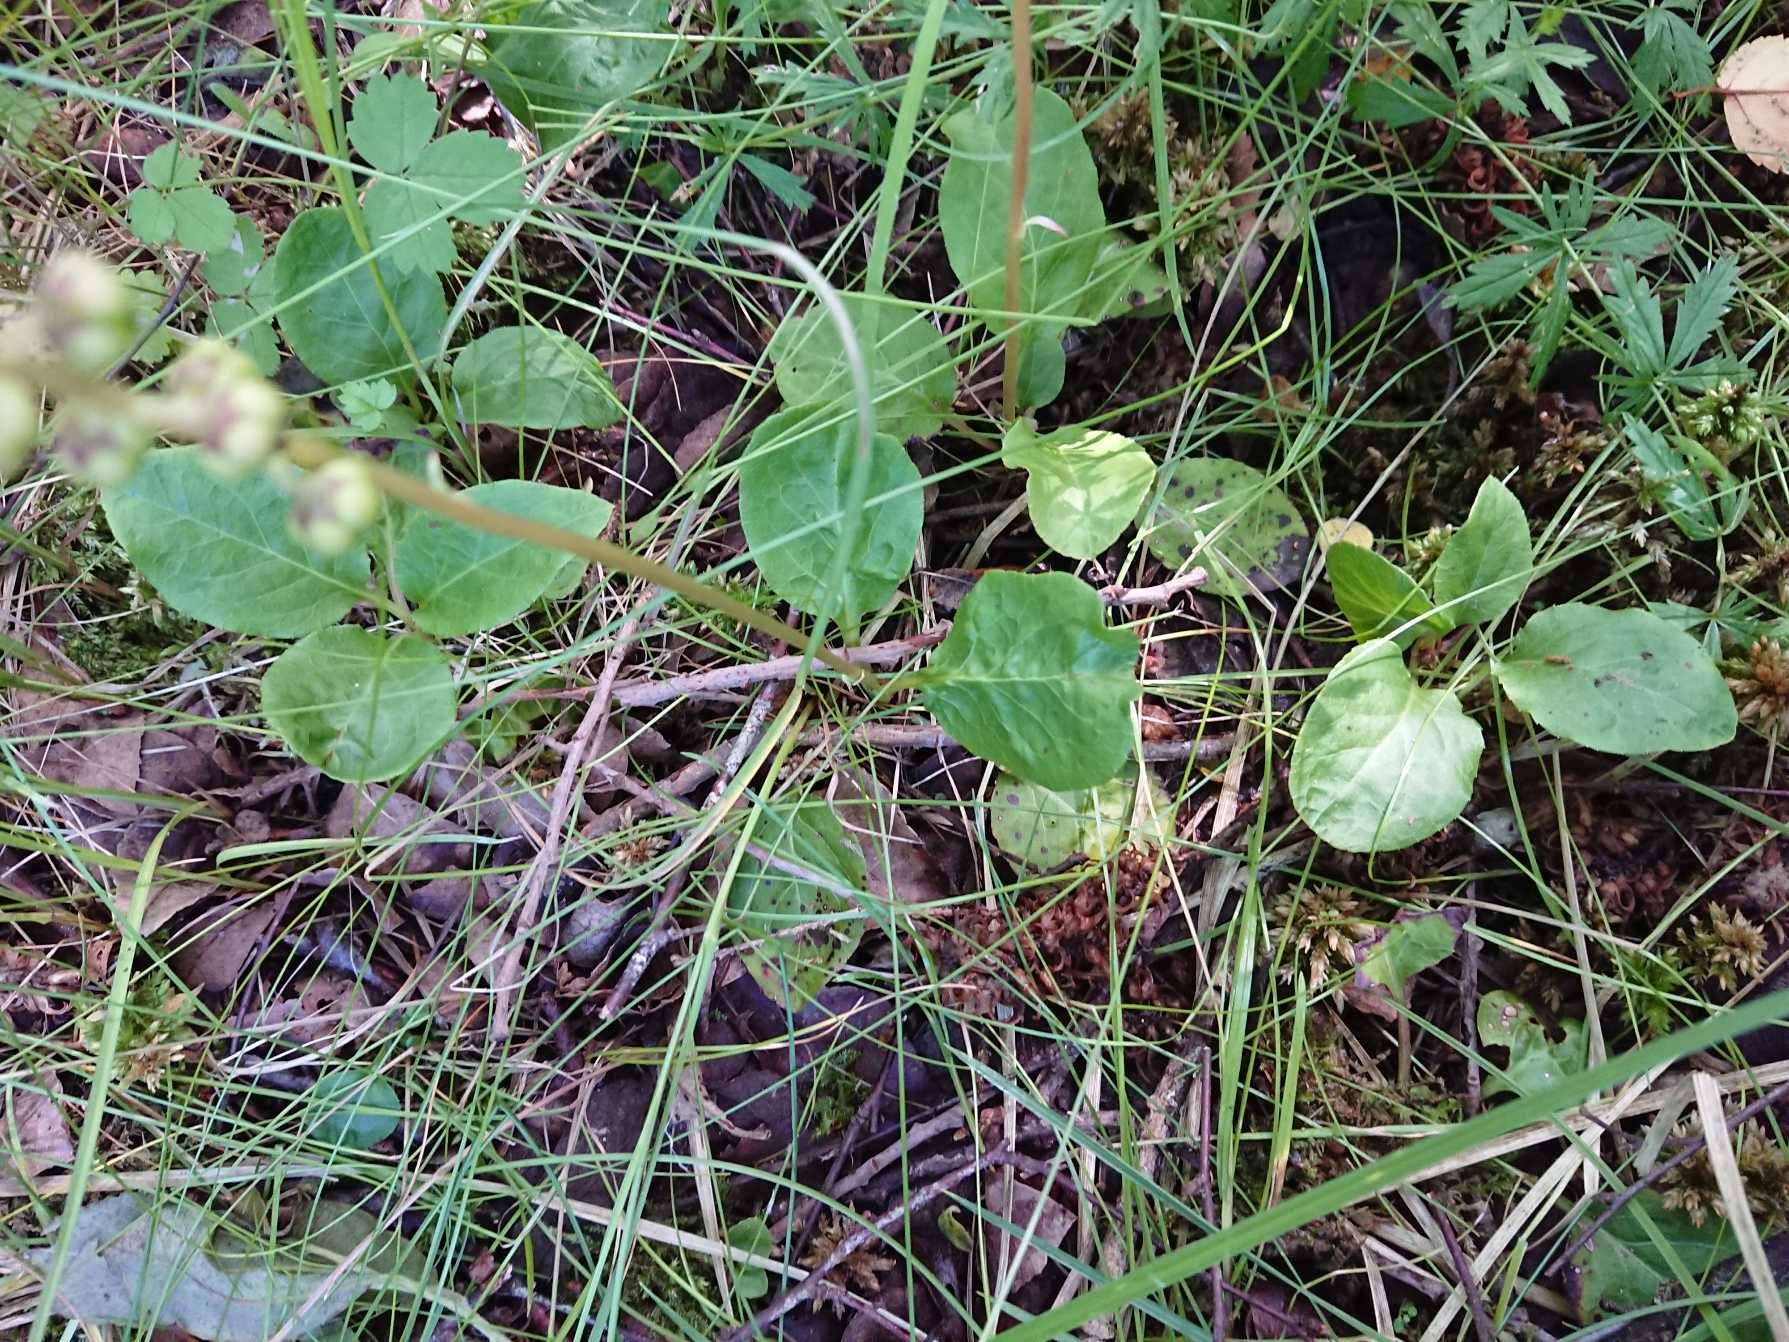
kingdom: Plantae
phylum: Tracheophyta
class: Magnoliopsida
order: Ericales
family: Ericaceae
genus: Pyrola
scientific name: Pyrola minor
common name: Liden vintergrøn
